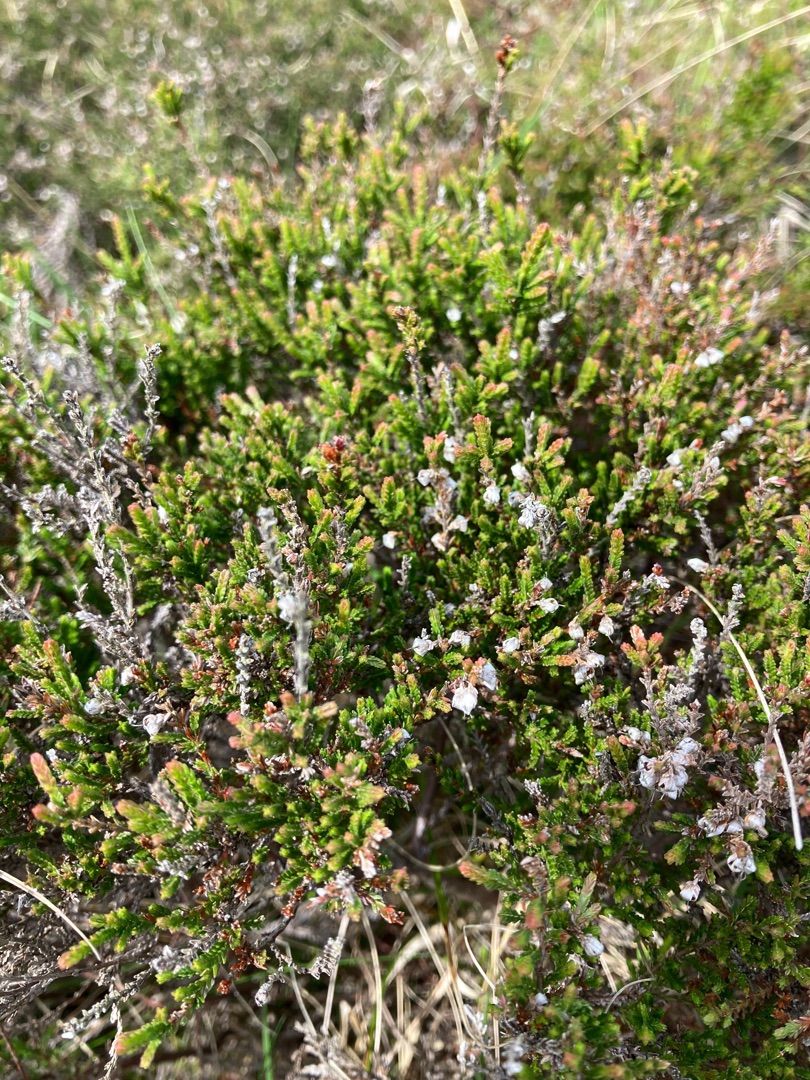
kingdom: Plantae
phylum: Tracheophyta
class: Magnoliopsida
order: Ericales
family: Ericaceae
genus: Calluna
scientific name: Calluna vulgaris
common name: Hedelyng
